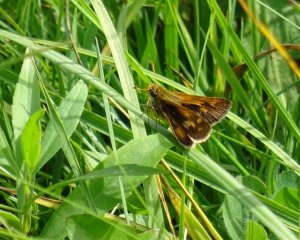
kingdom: Animalia
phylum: Arthropoda
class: Insecta
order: Lepidoptera
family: Hesperiidae
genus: Polites
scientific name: Polites coras
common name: Peck's Skipper
